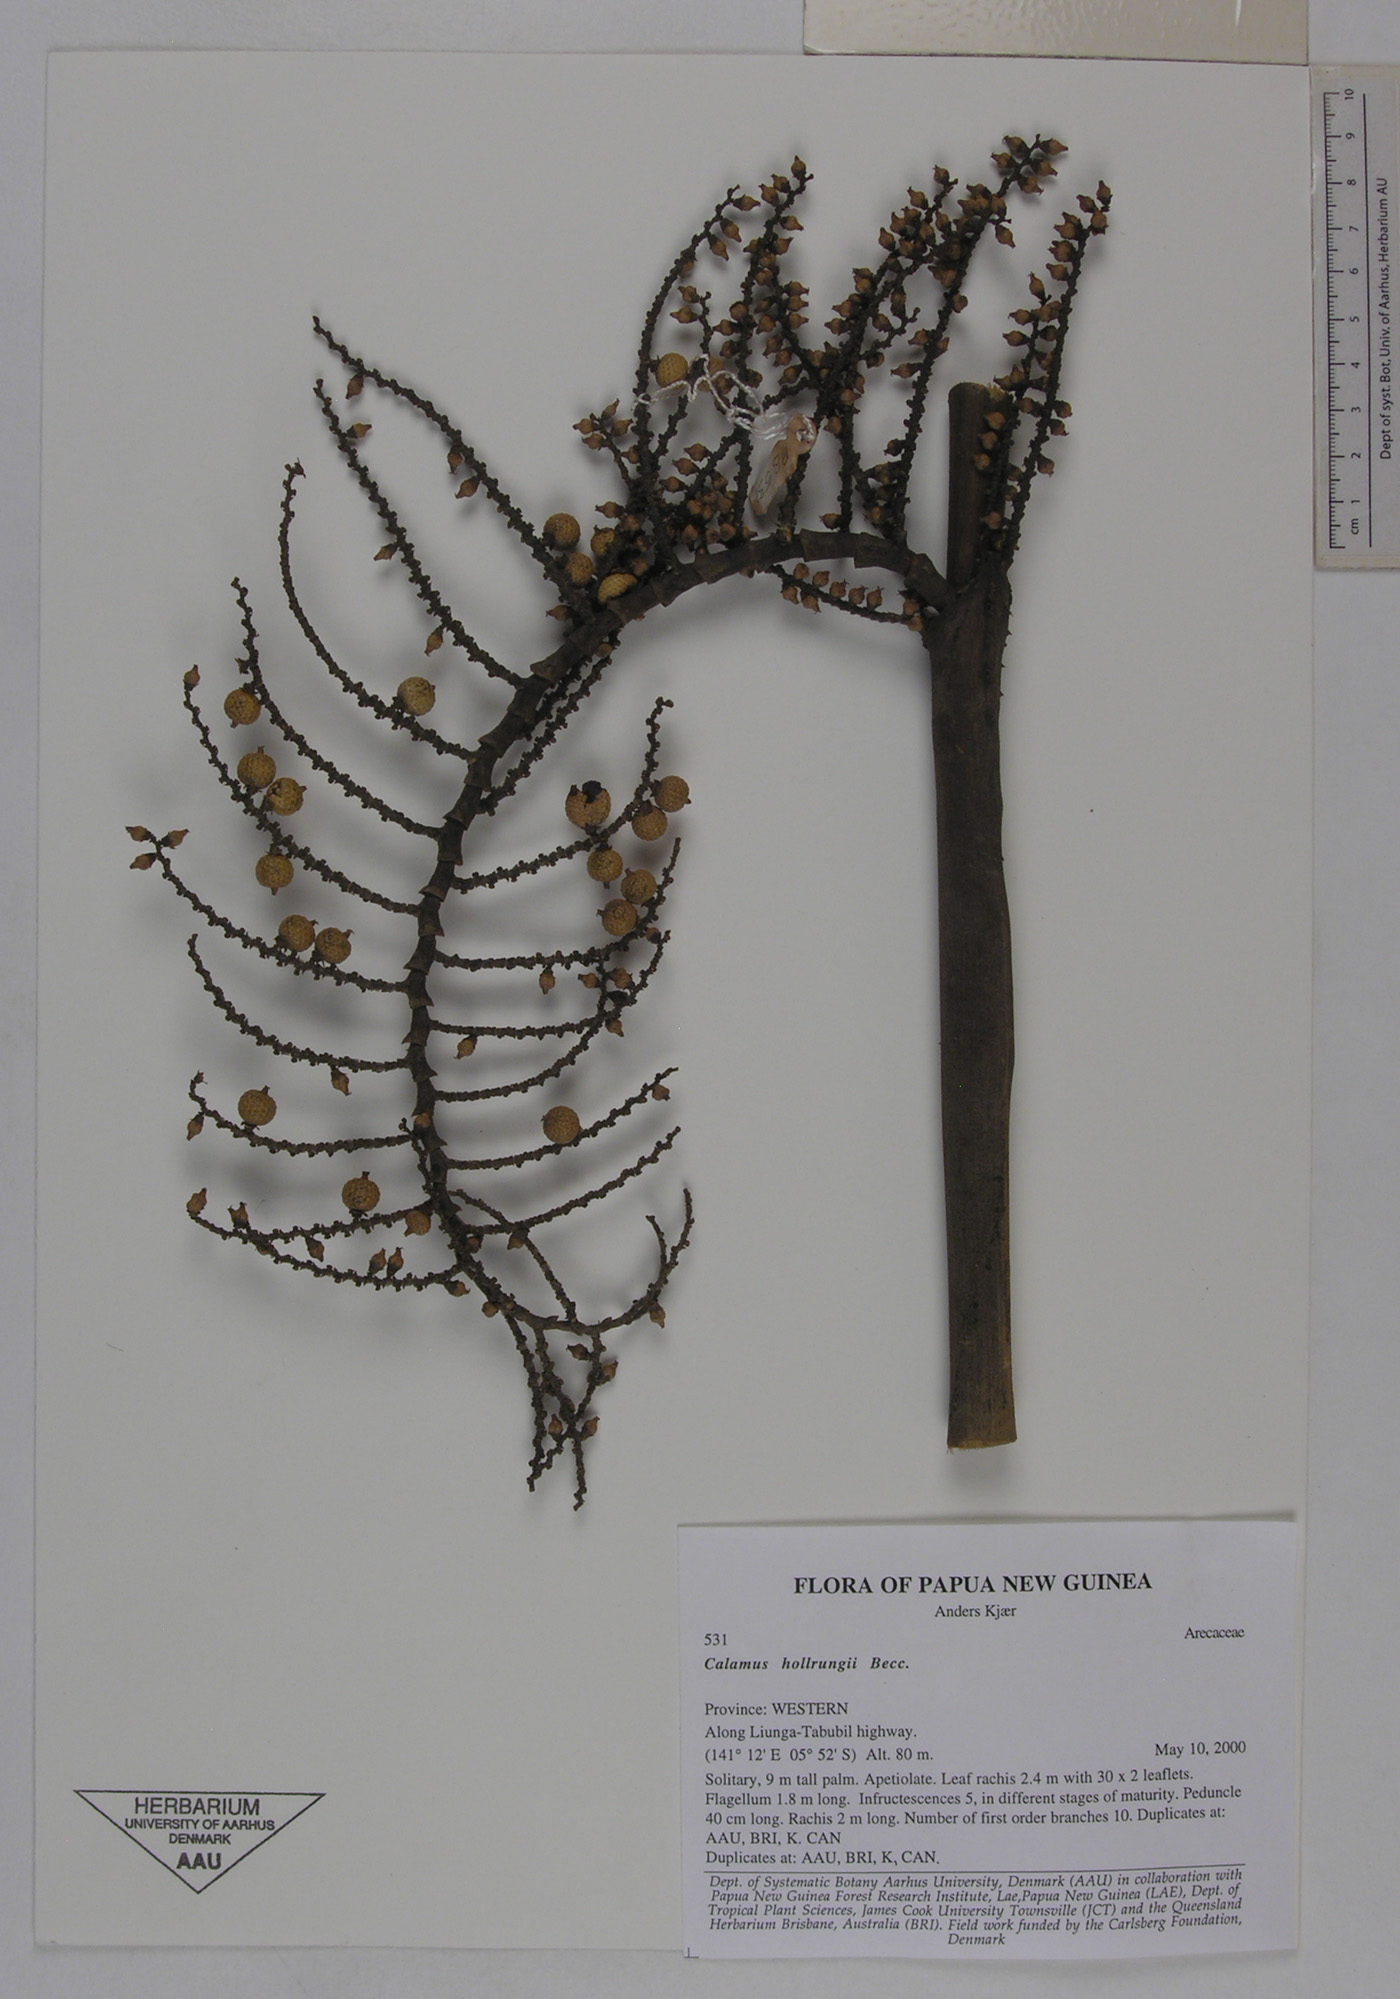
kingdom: Plantae
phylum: Tracheophyta
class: Liliopsida
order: Arecales
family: Arecaceae
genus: Calamus
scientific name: Calamus aruensis
